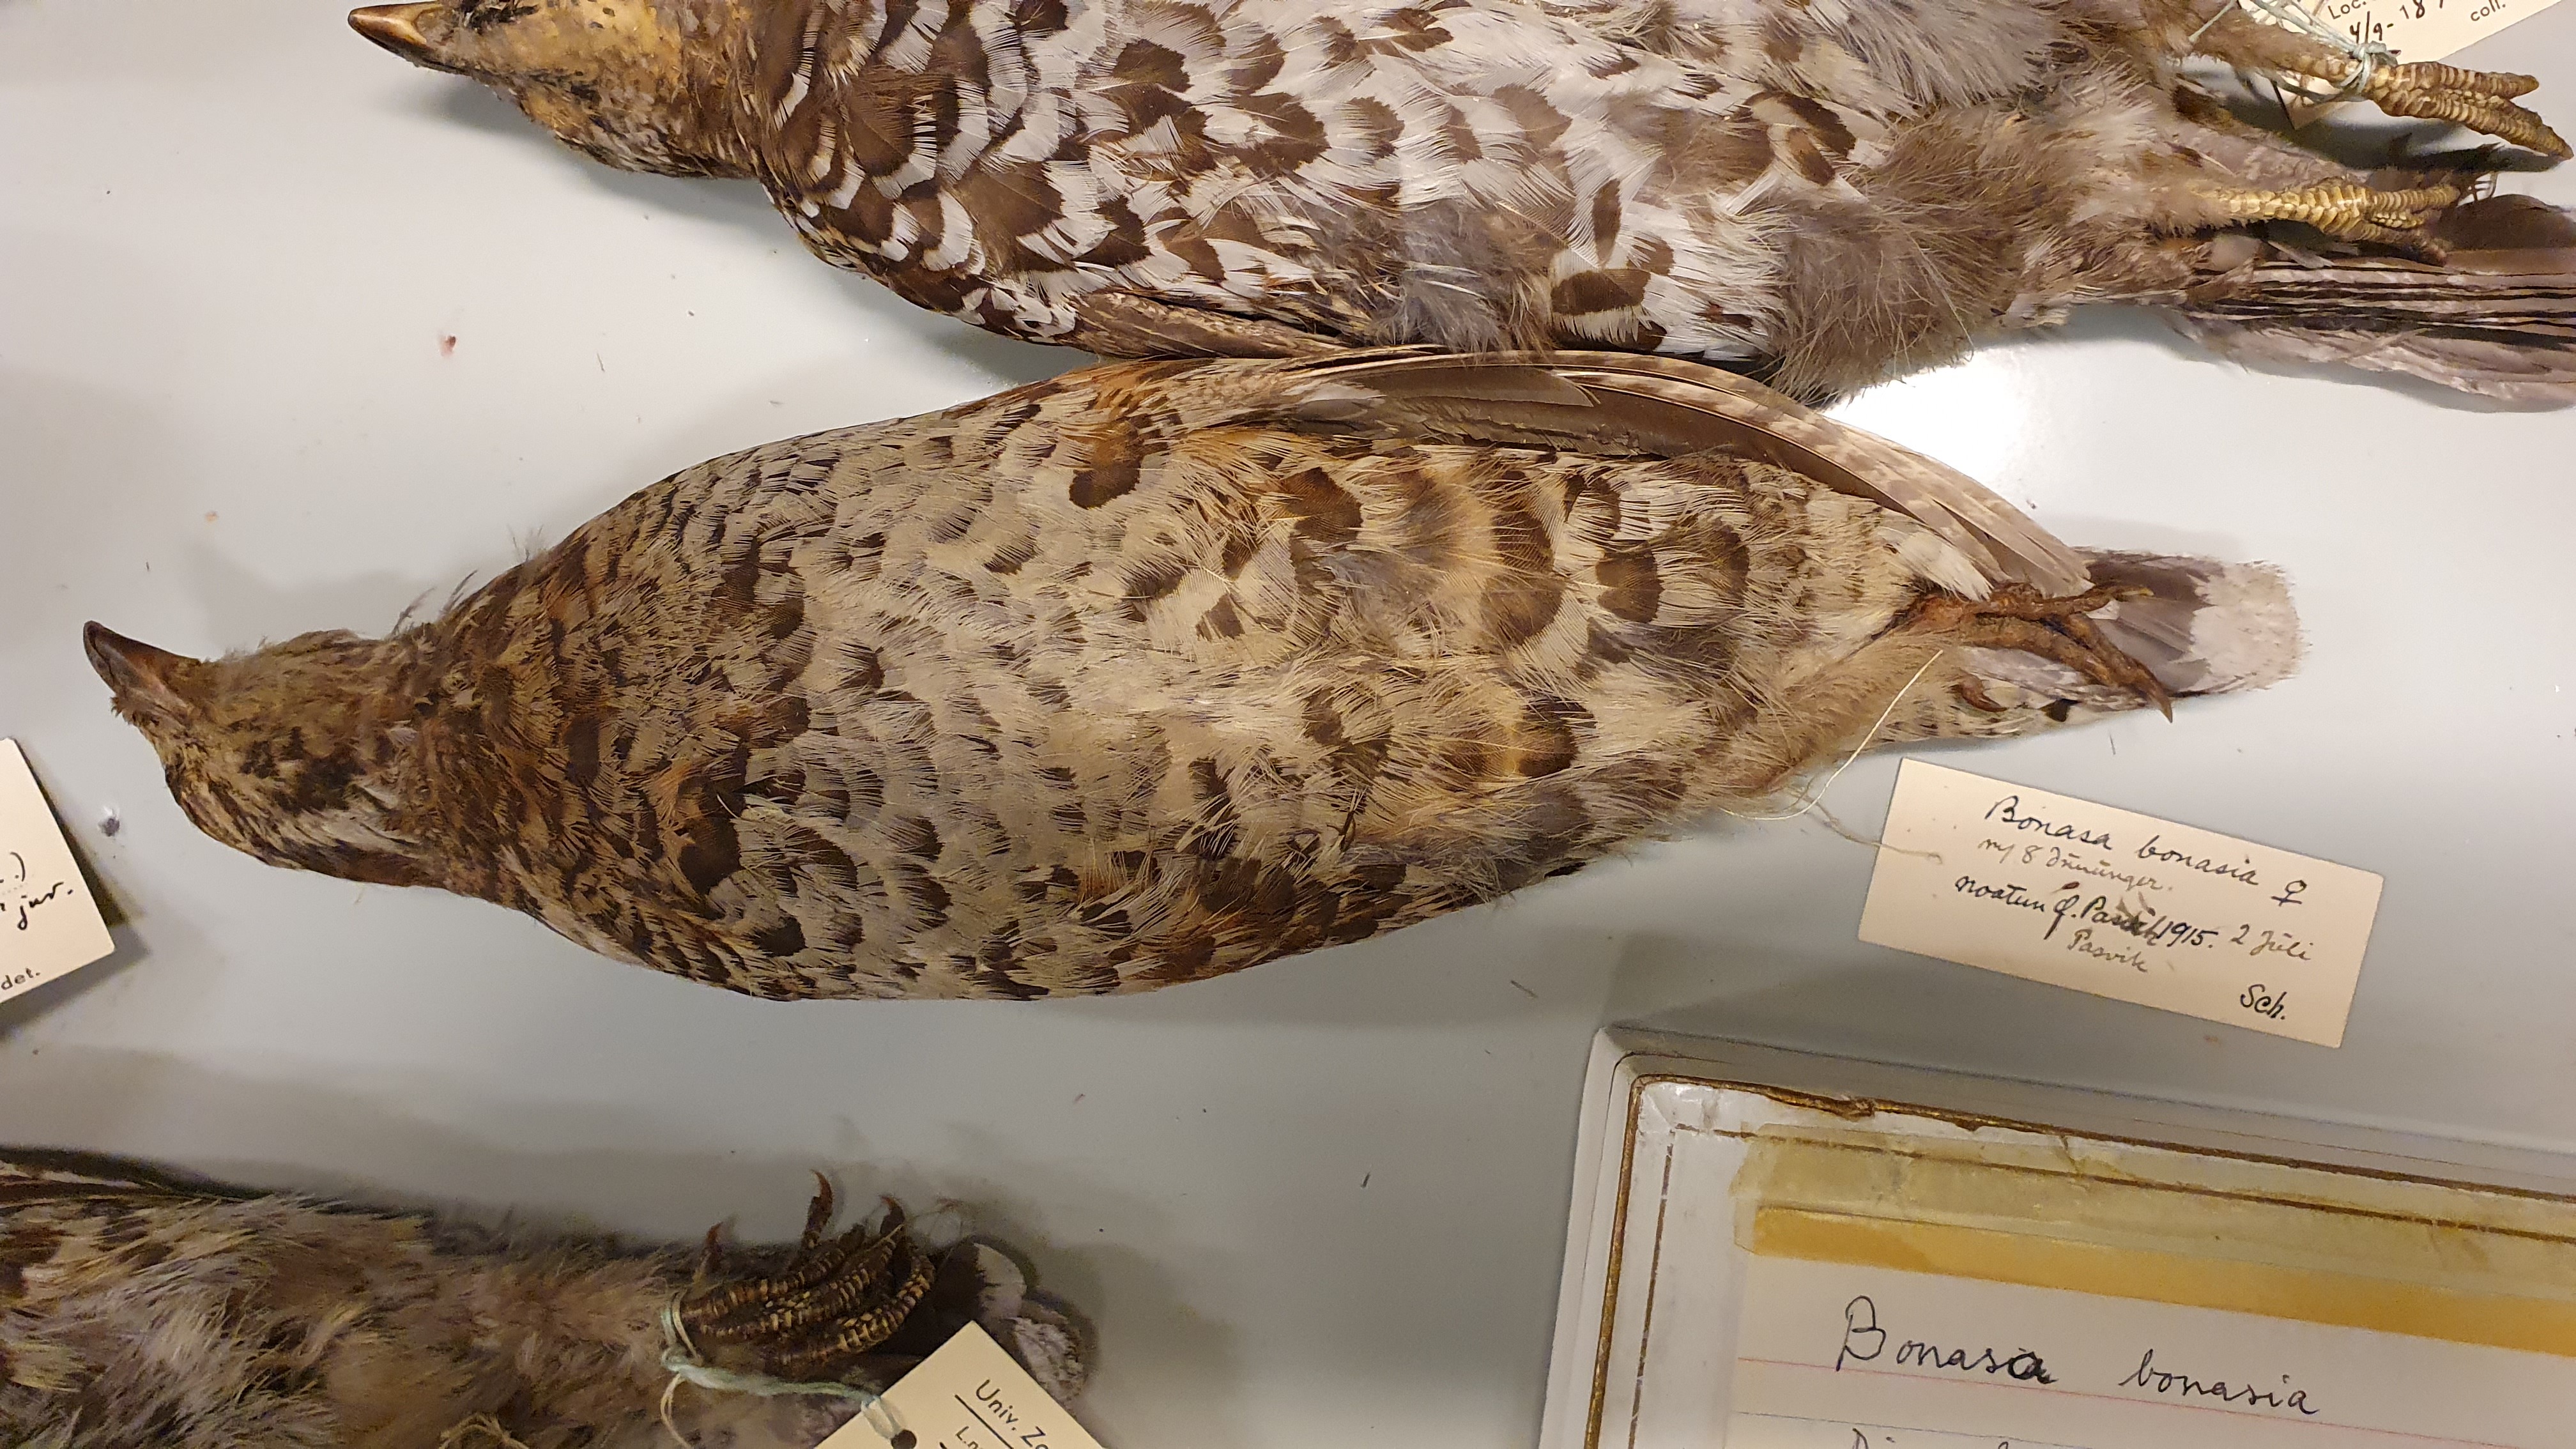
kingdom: Animalia
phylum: Chordata
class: Aves
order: Galliformes
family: Phasianidae
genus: Tetrastes
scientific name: Tetrastes bonasia
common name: Hazel grouse
